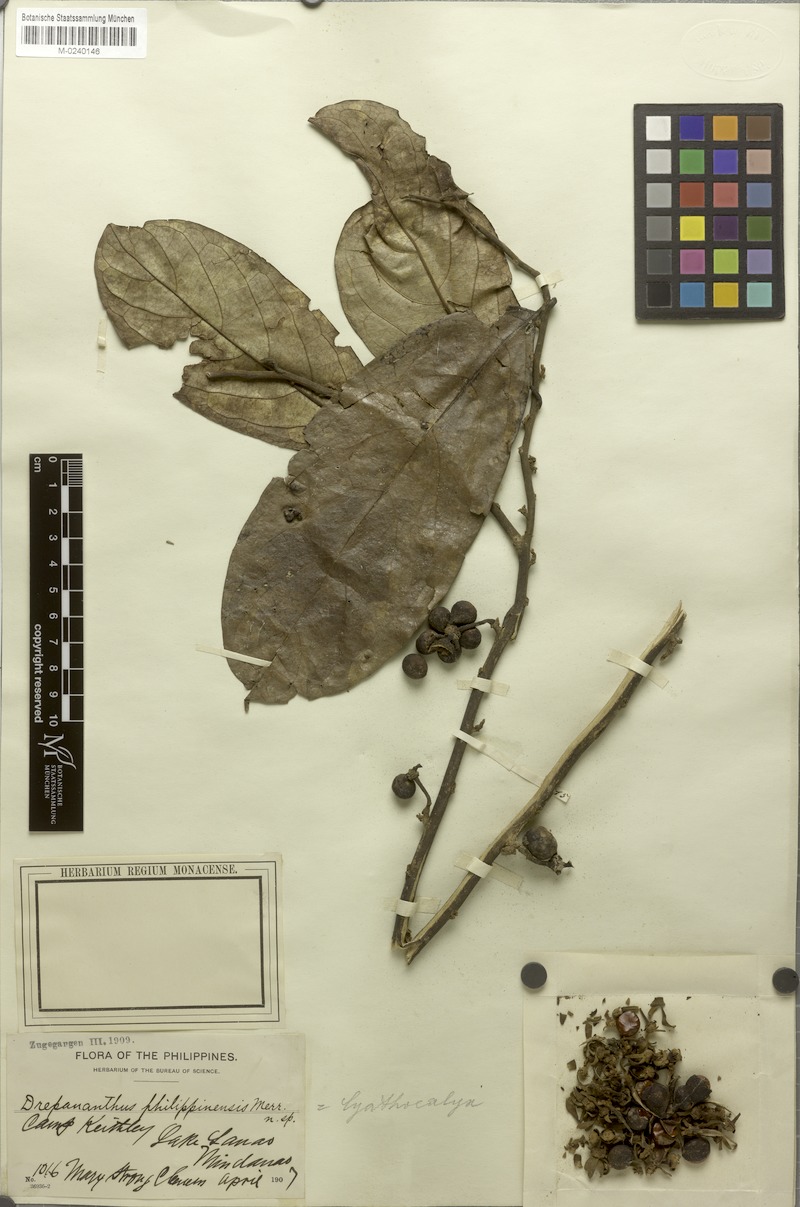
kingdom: Plantae
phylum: Tracheophyta
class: Magnoliopsida
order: Magnoliales
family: Annonaceae
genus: Drepananthus
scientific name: Drepananthus acuminatus
